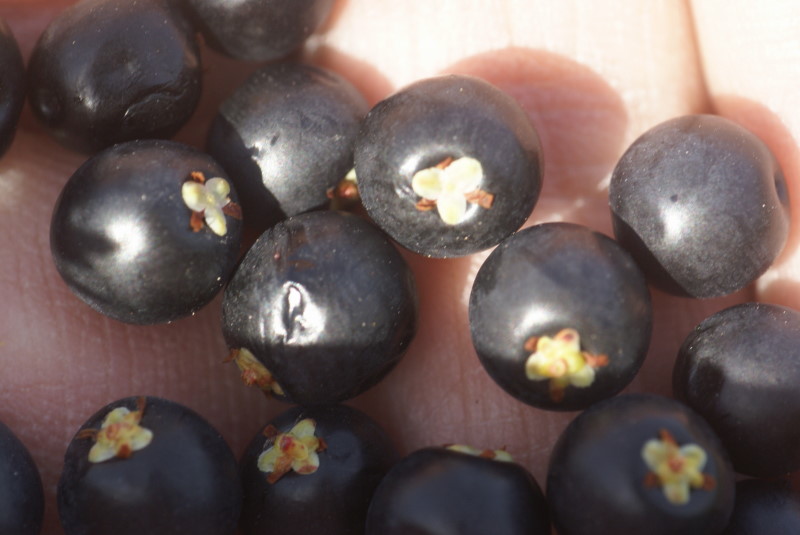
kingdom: Plantae
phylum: Tracheophyta
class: Magnoliopsida
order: Ericales
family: Ericaceae
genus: Empetrum
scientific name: Empetrum nigrum
